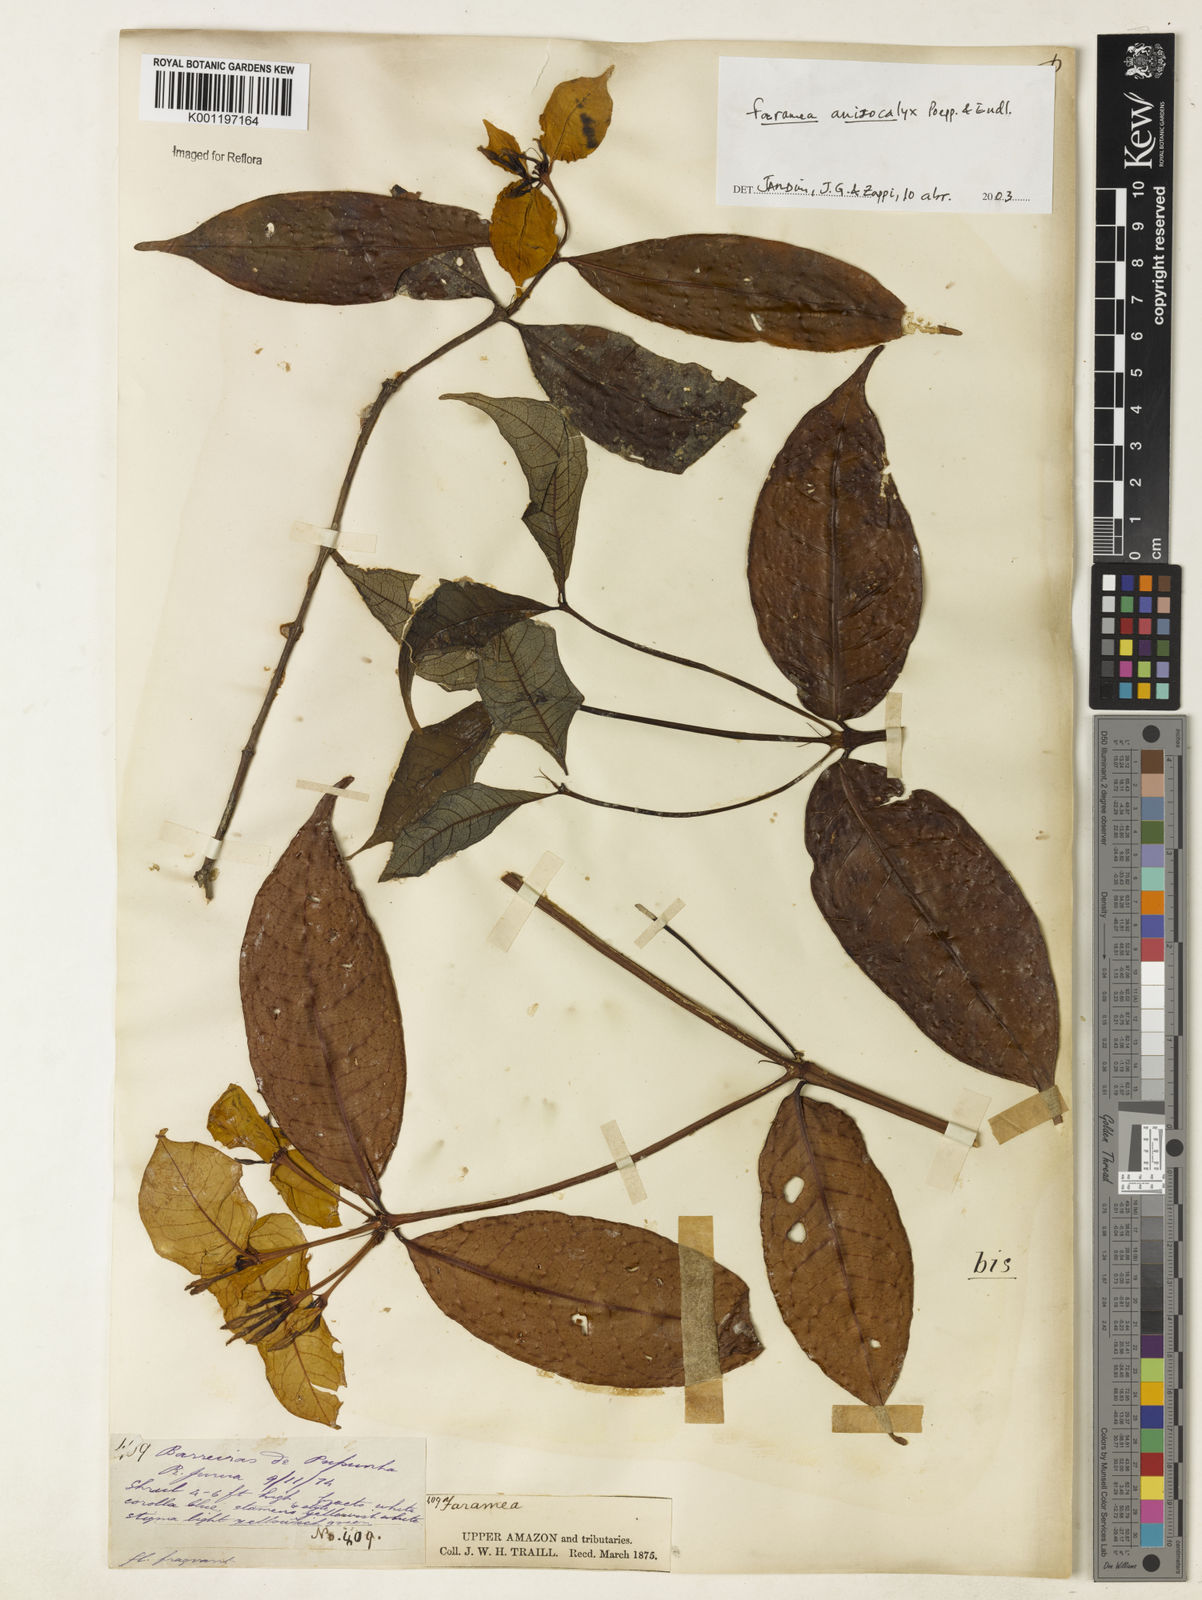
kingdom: Plantae
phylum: Tracheophyta
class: Magnoliopsida
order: Gentianales
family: Rubiaceae
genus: Faramea
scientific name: Faramea anisocalyx
